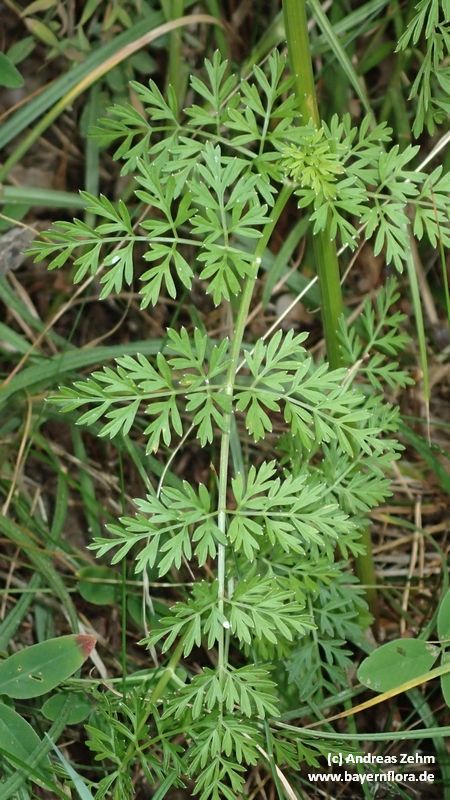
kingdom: Plantae
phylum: Tracheophyta
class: Magnoliopsida
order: Apiales
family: Apiaceae
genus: Selinum
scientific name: Selinum carvifolia
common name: Cambridge milk-parsley
